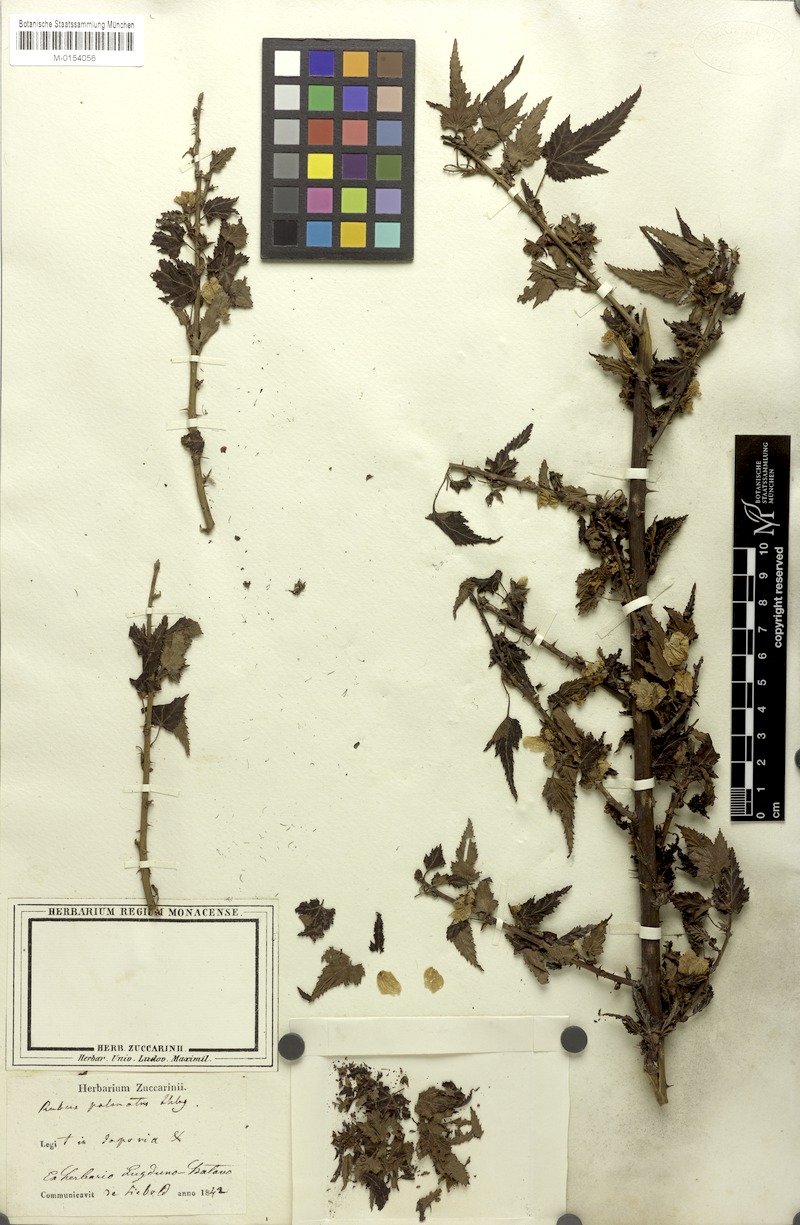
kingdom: Plantae
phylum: Tracheophyta
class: Magnoliopsida
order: Rosales
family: Rosaceae
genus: Rubus
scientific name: Rubus palmatus
